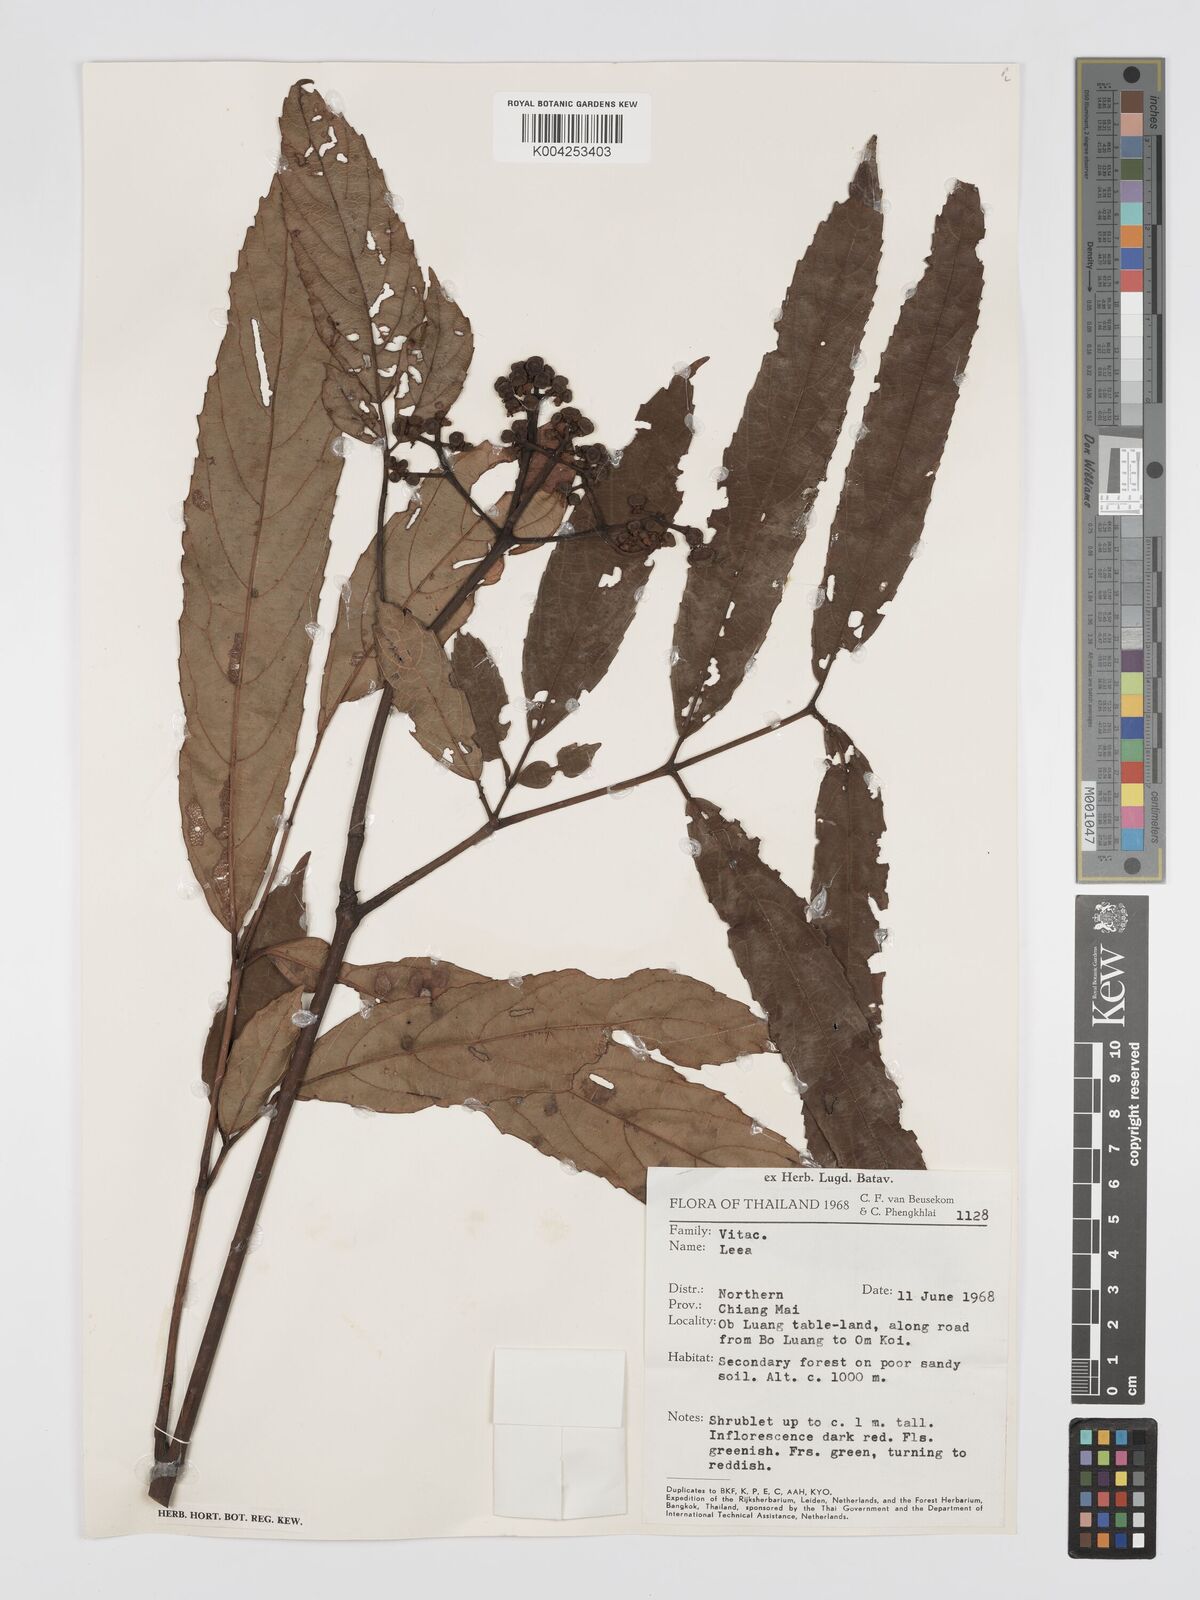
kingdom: Plantae
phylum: Tracheophyta
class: Magnoliopsida
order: Vitales
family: Vitaceae
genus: Leea
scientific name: Leea
